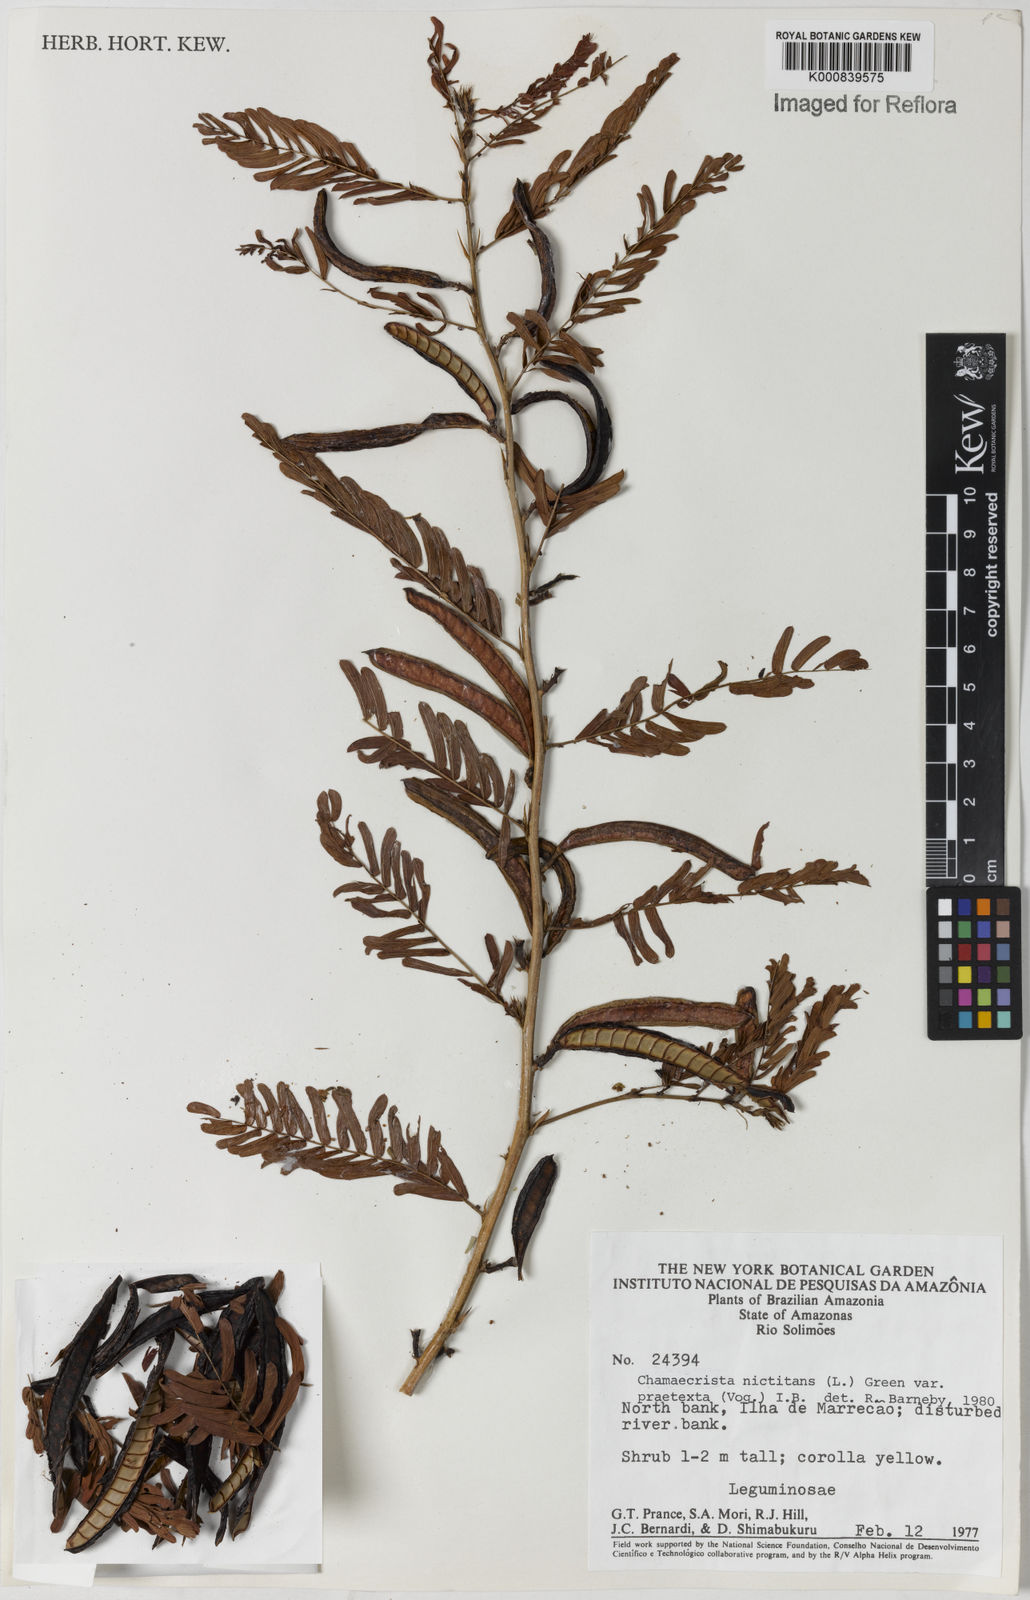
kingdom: Plantae
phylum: Tracheophyta
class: Magnoliopsida
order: Fabales
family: Fabaceae
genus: Chamaecrista
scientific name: Chamaecrista nictitans
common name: Sensitive cassia
